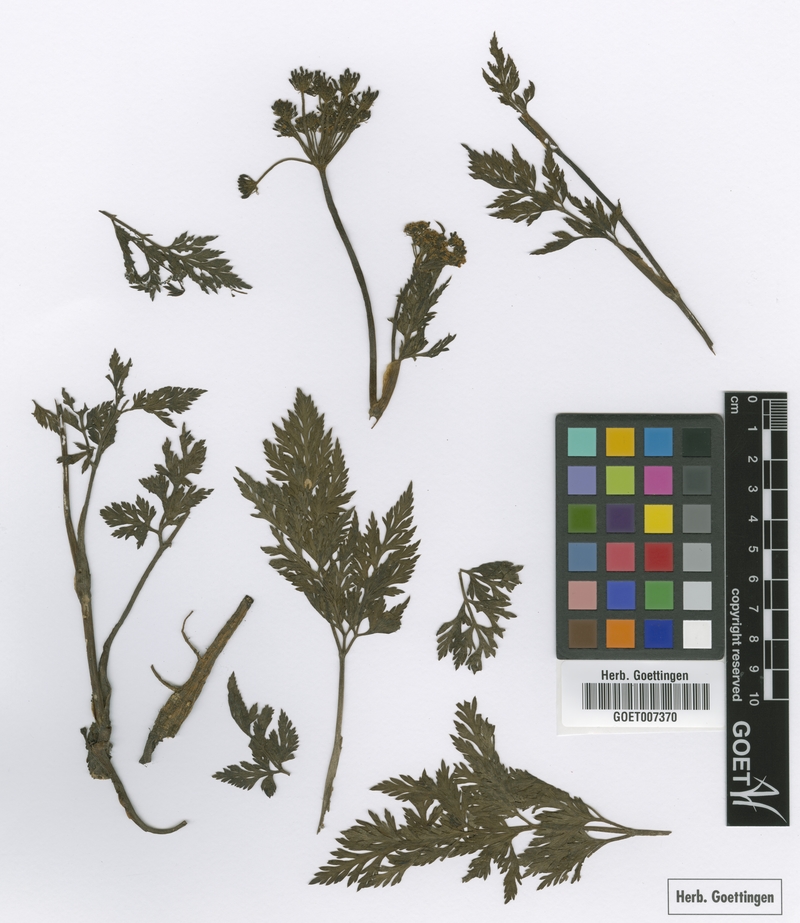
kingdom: Plantae
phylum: Tracheophyta
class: Magnoliopsida
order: Apiales
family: Apiaceae
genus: Austropeucedanum
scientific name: Austropeucedanum oreopansii
